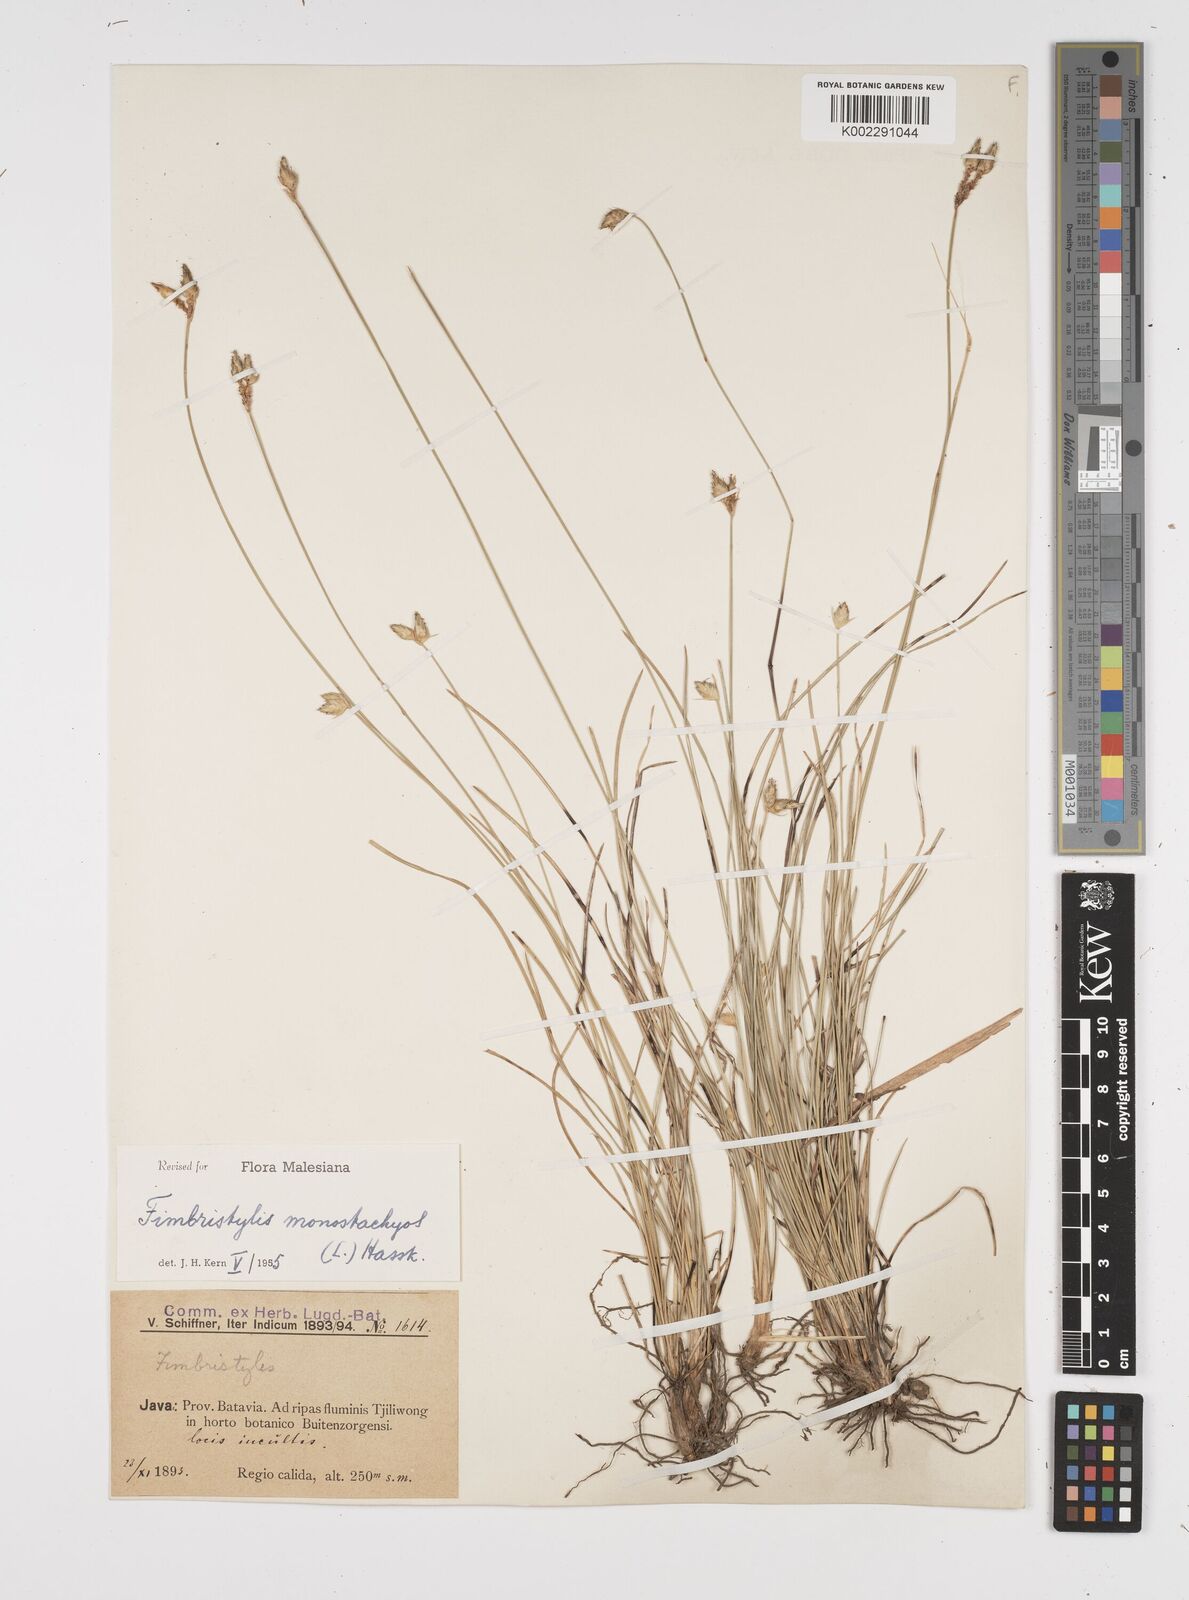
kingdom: Plantae
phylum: Tracheophyta
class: Liliopsida
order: Poales
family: Cyperaceae
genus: Abildgaardia
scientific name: Abildgaardia ovata
